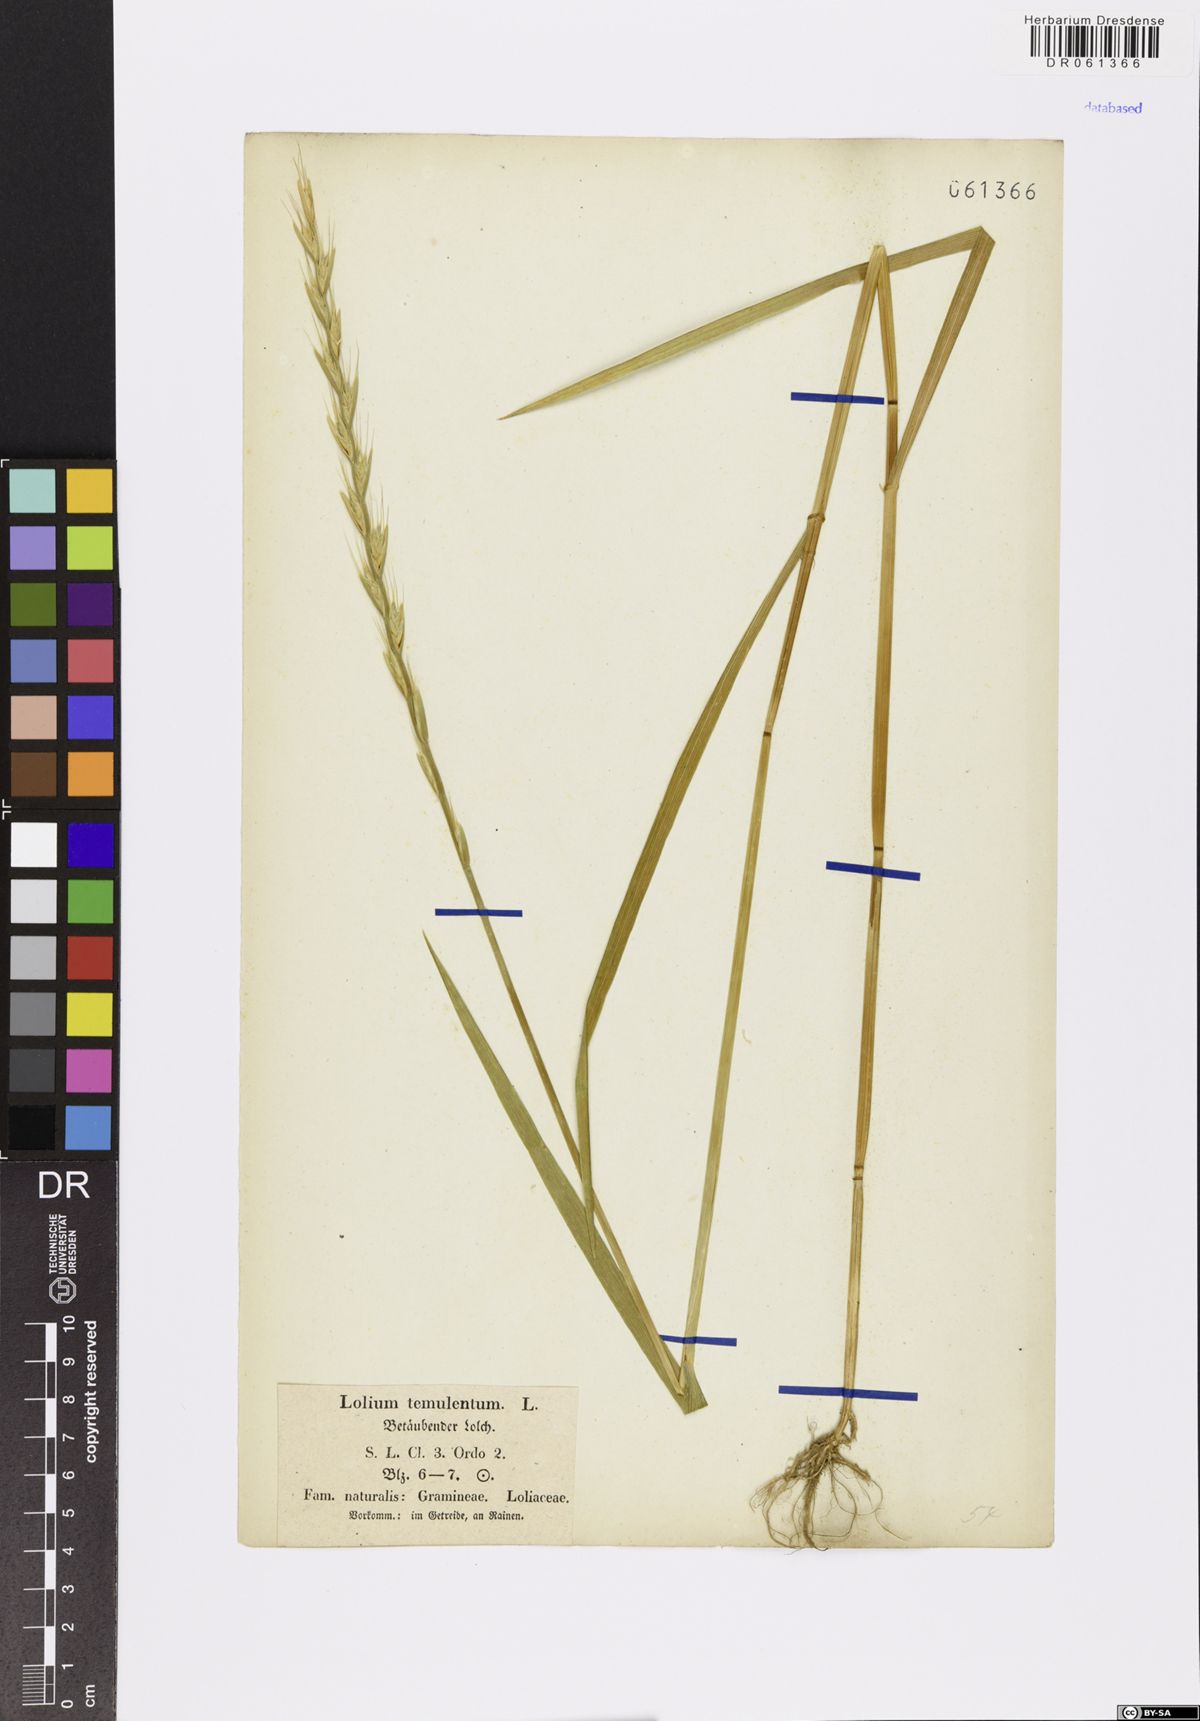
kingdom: Plantae
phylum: Tracheophyta
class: Liliopsida
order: Poales
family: Poaceae
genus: Lolium
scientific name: Lolium temulentum
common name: Darnel
